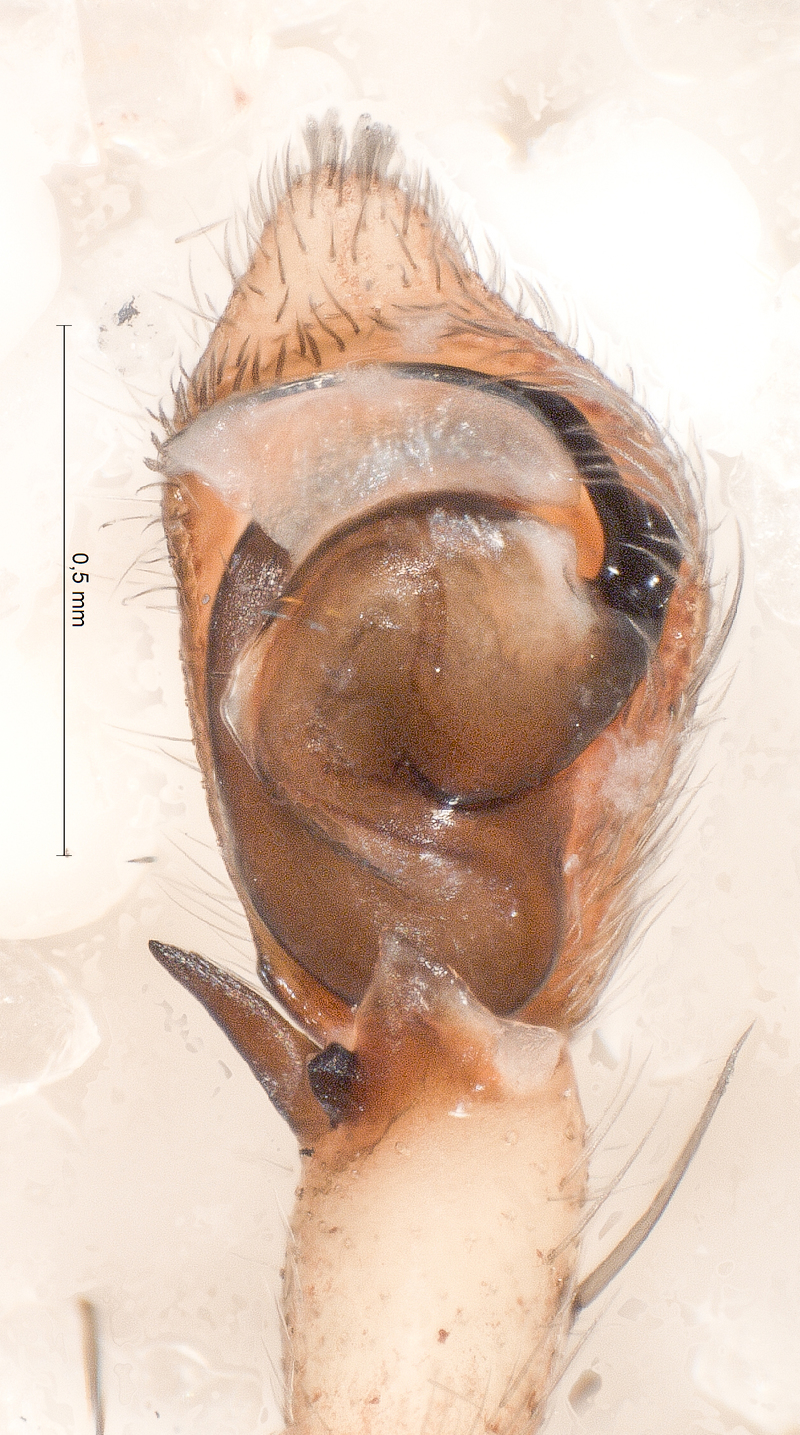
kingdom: Animalia
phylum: Arthropoda
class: Arachnida
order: Araneae
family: Philodromidae
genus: Philodromus
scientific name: Philodromus cespitum
